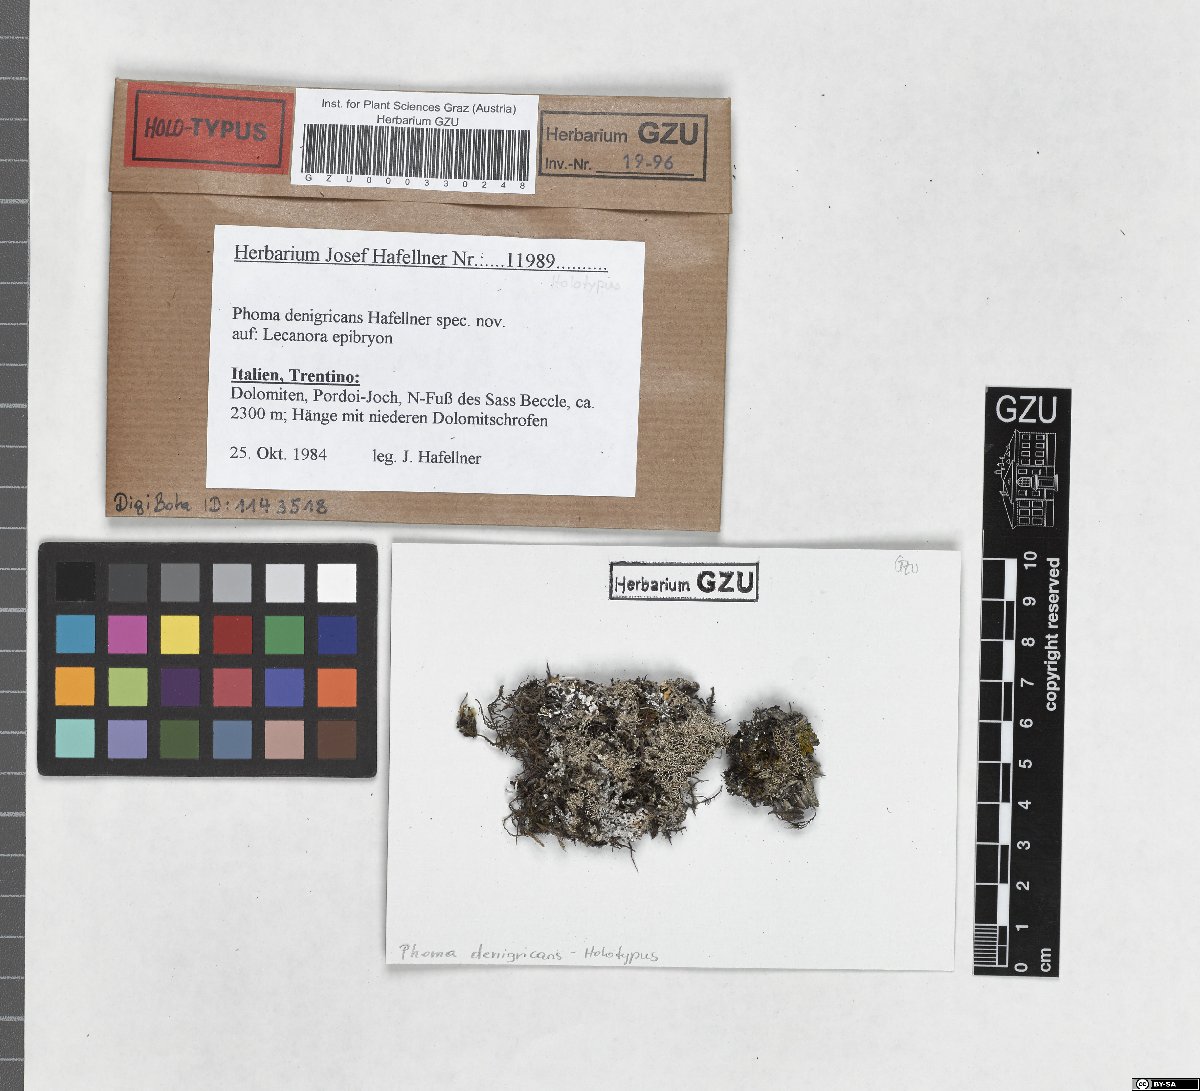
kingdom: Fungi
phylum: Ascomycota
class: Dothideomycetes
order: Pleosporales
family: Didymellaceae
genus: Phoma
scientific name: Phoma denigricans
